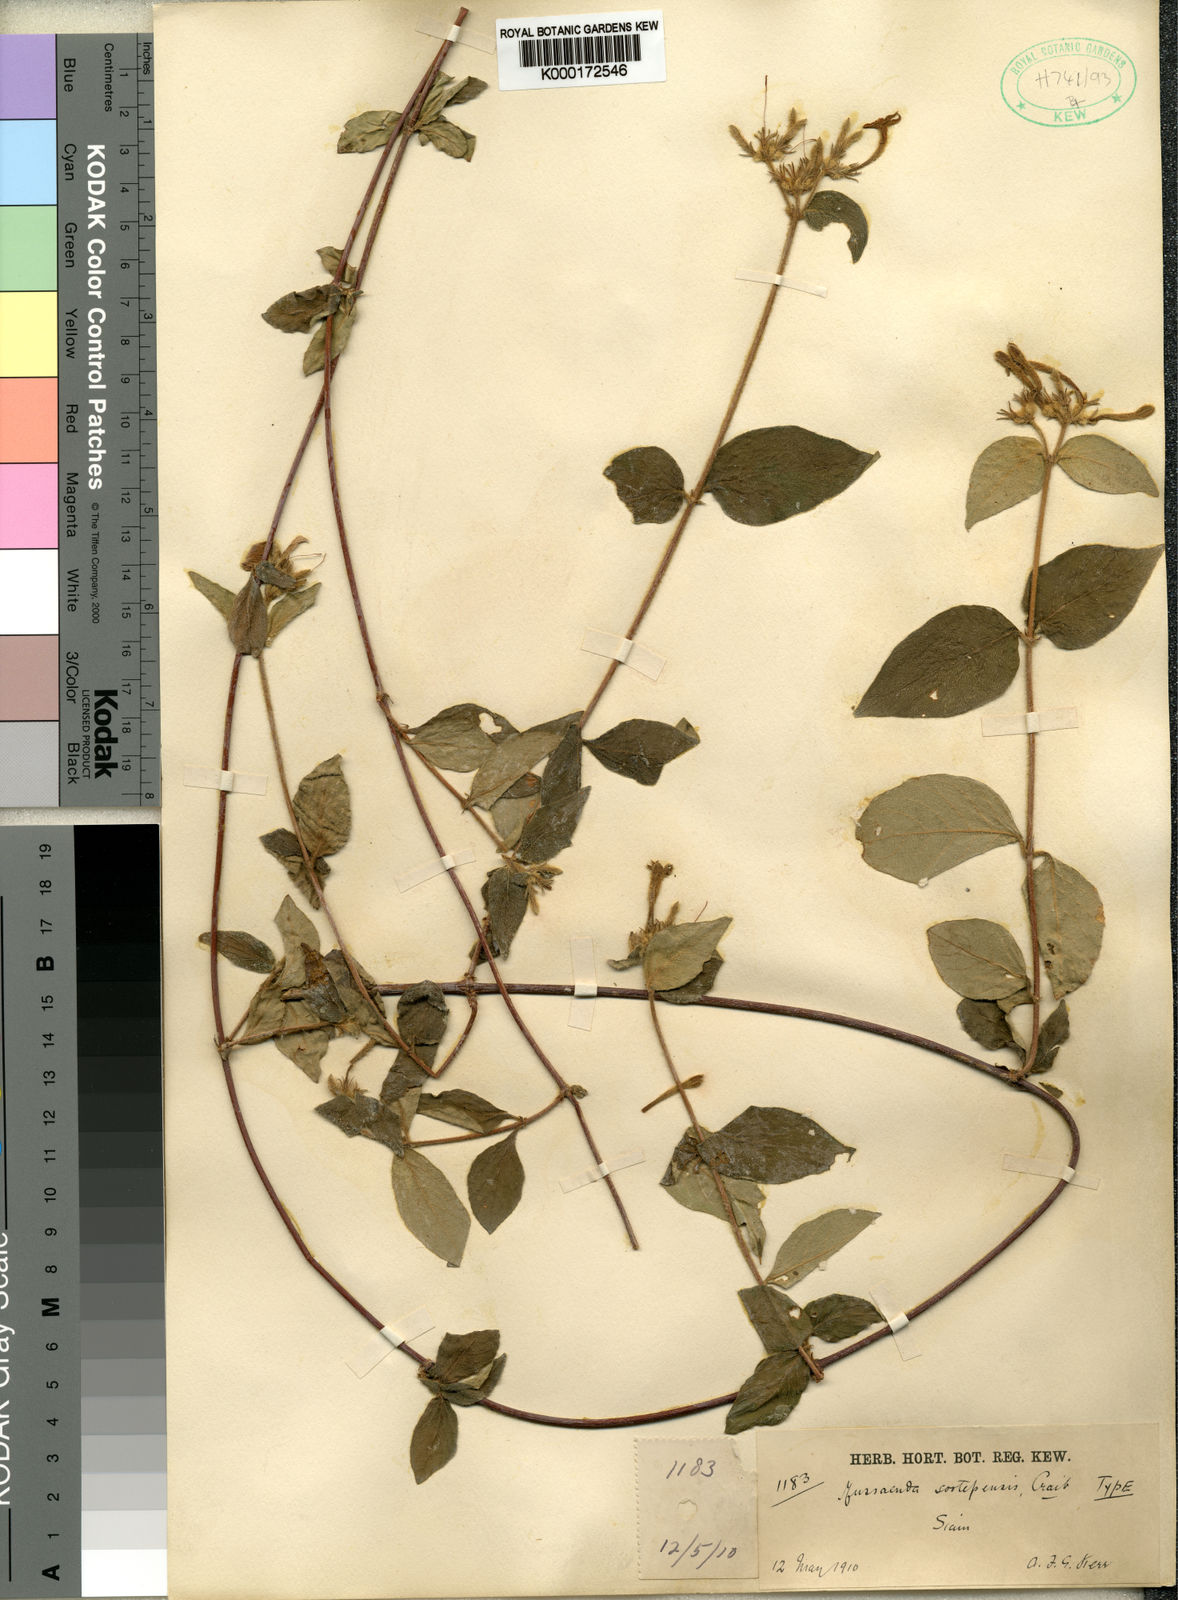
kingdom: Plantae
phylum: Tracheophyta
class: Magnoliopsida
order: Gentianales
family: Rubiaceae
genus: Mussaenda
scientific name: Mussaenda parva
